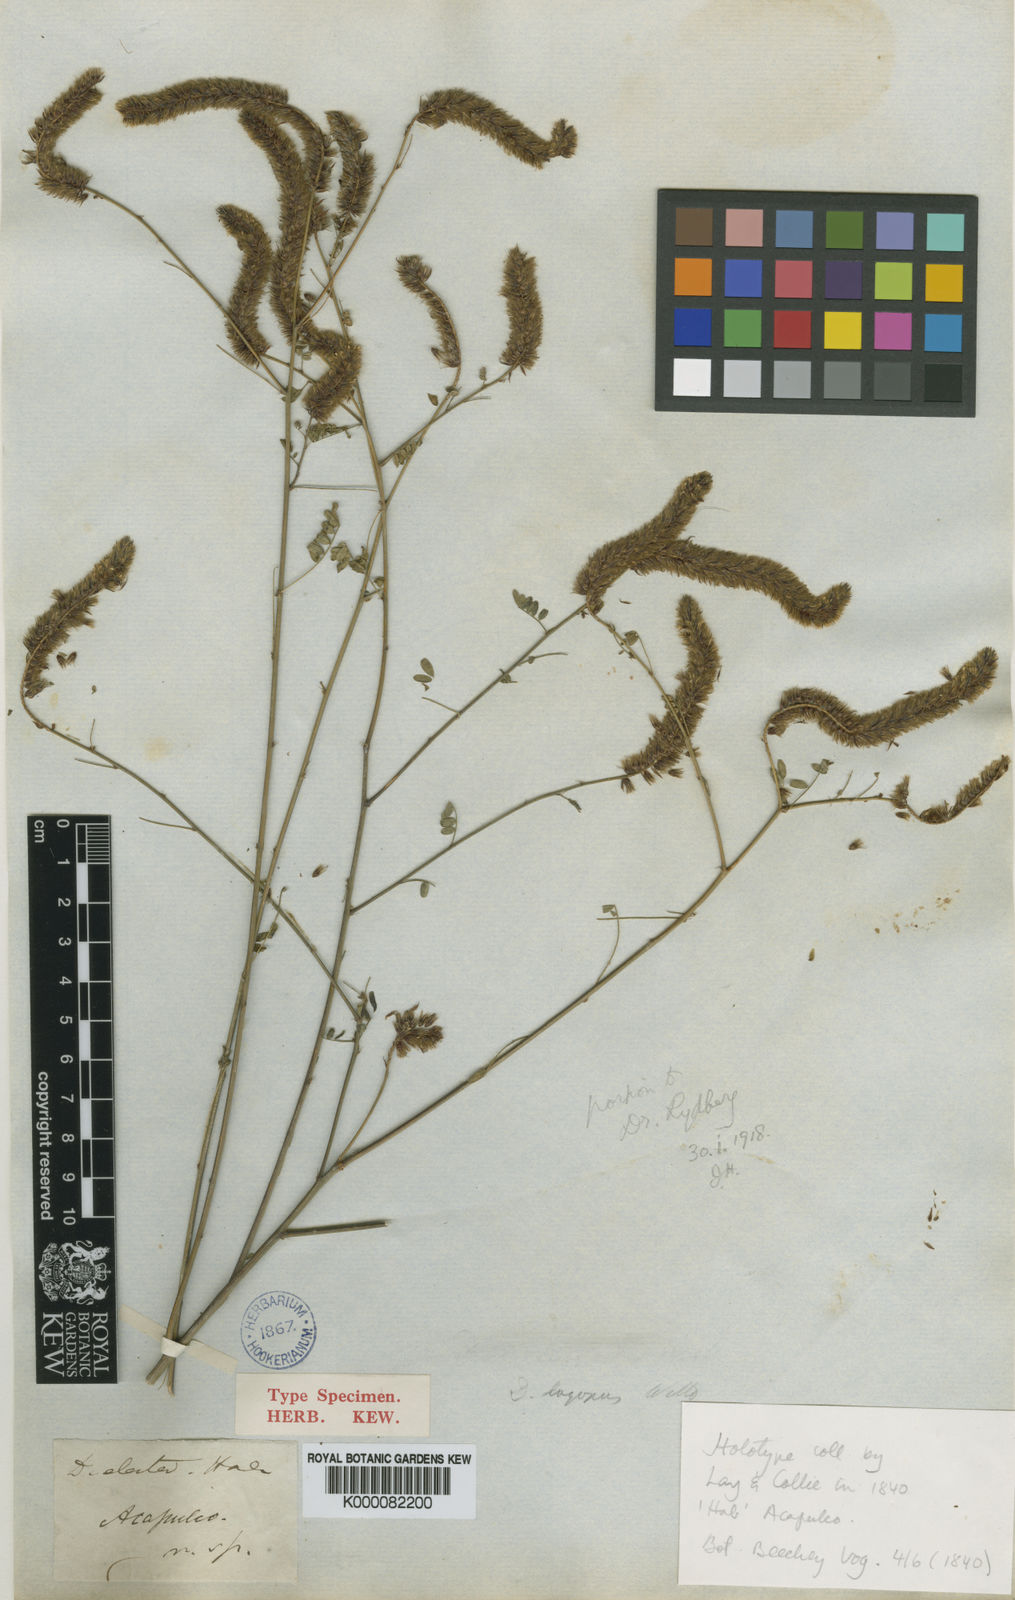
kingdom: Plantae
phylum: Tracheophyta
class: Magnoliopsida
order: Fabales
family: Fabaceae
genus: Dalea
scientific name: Dalea elata
